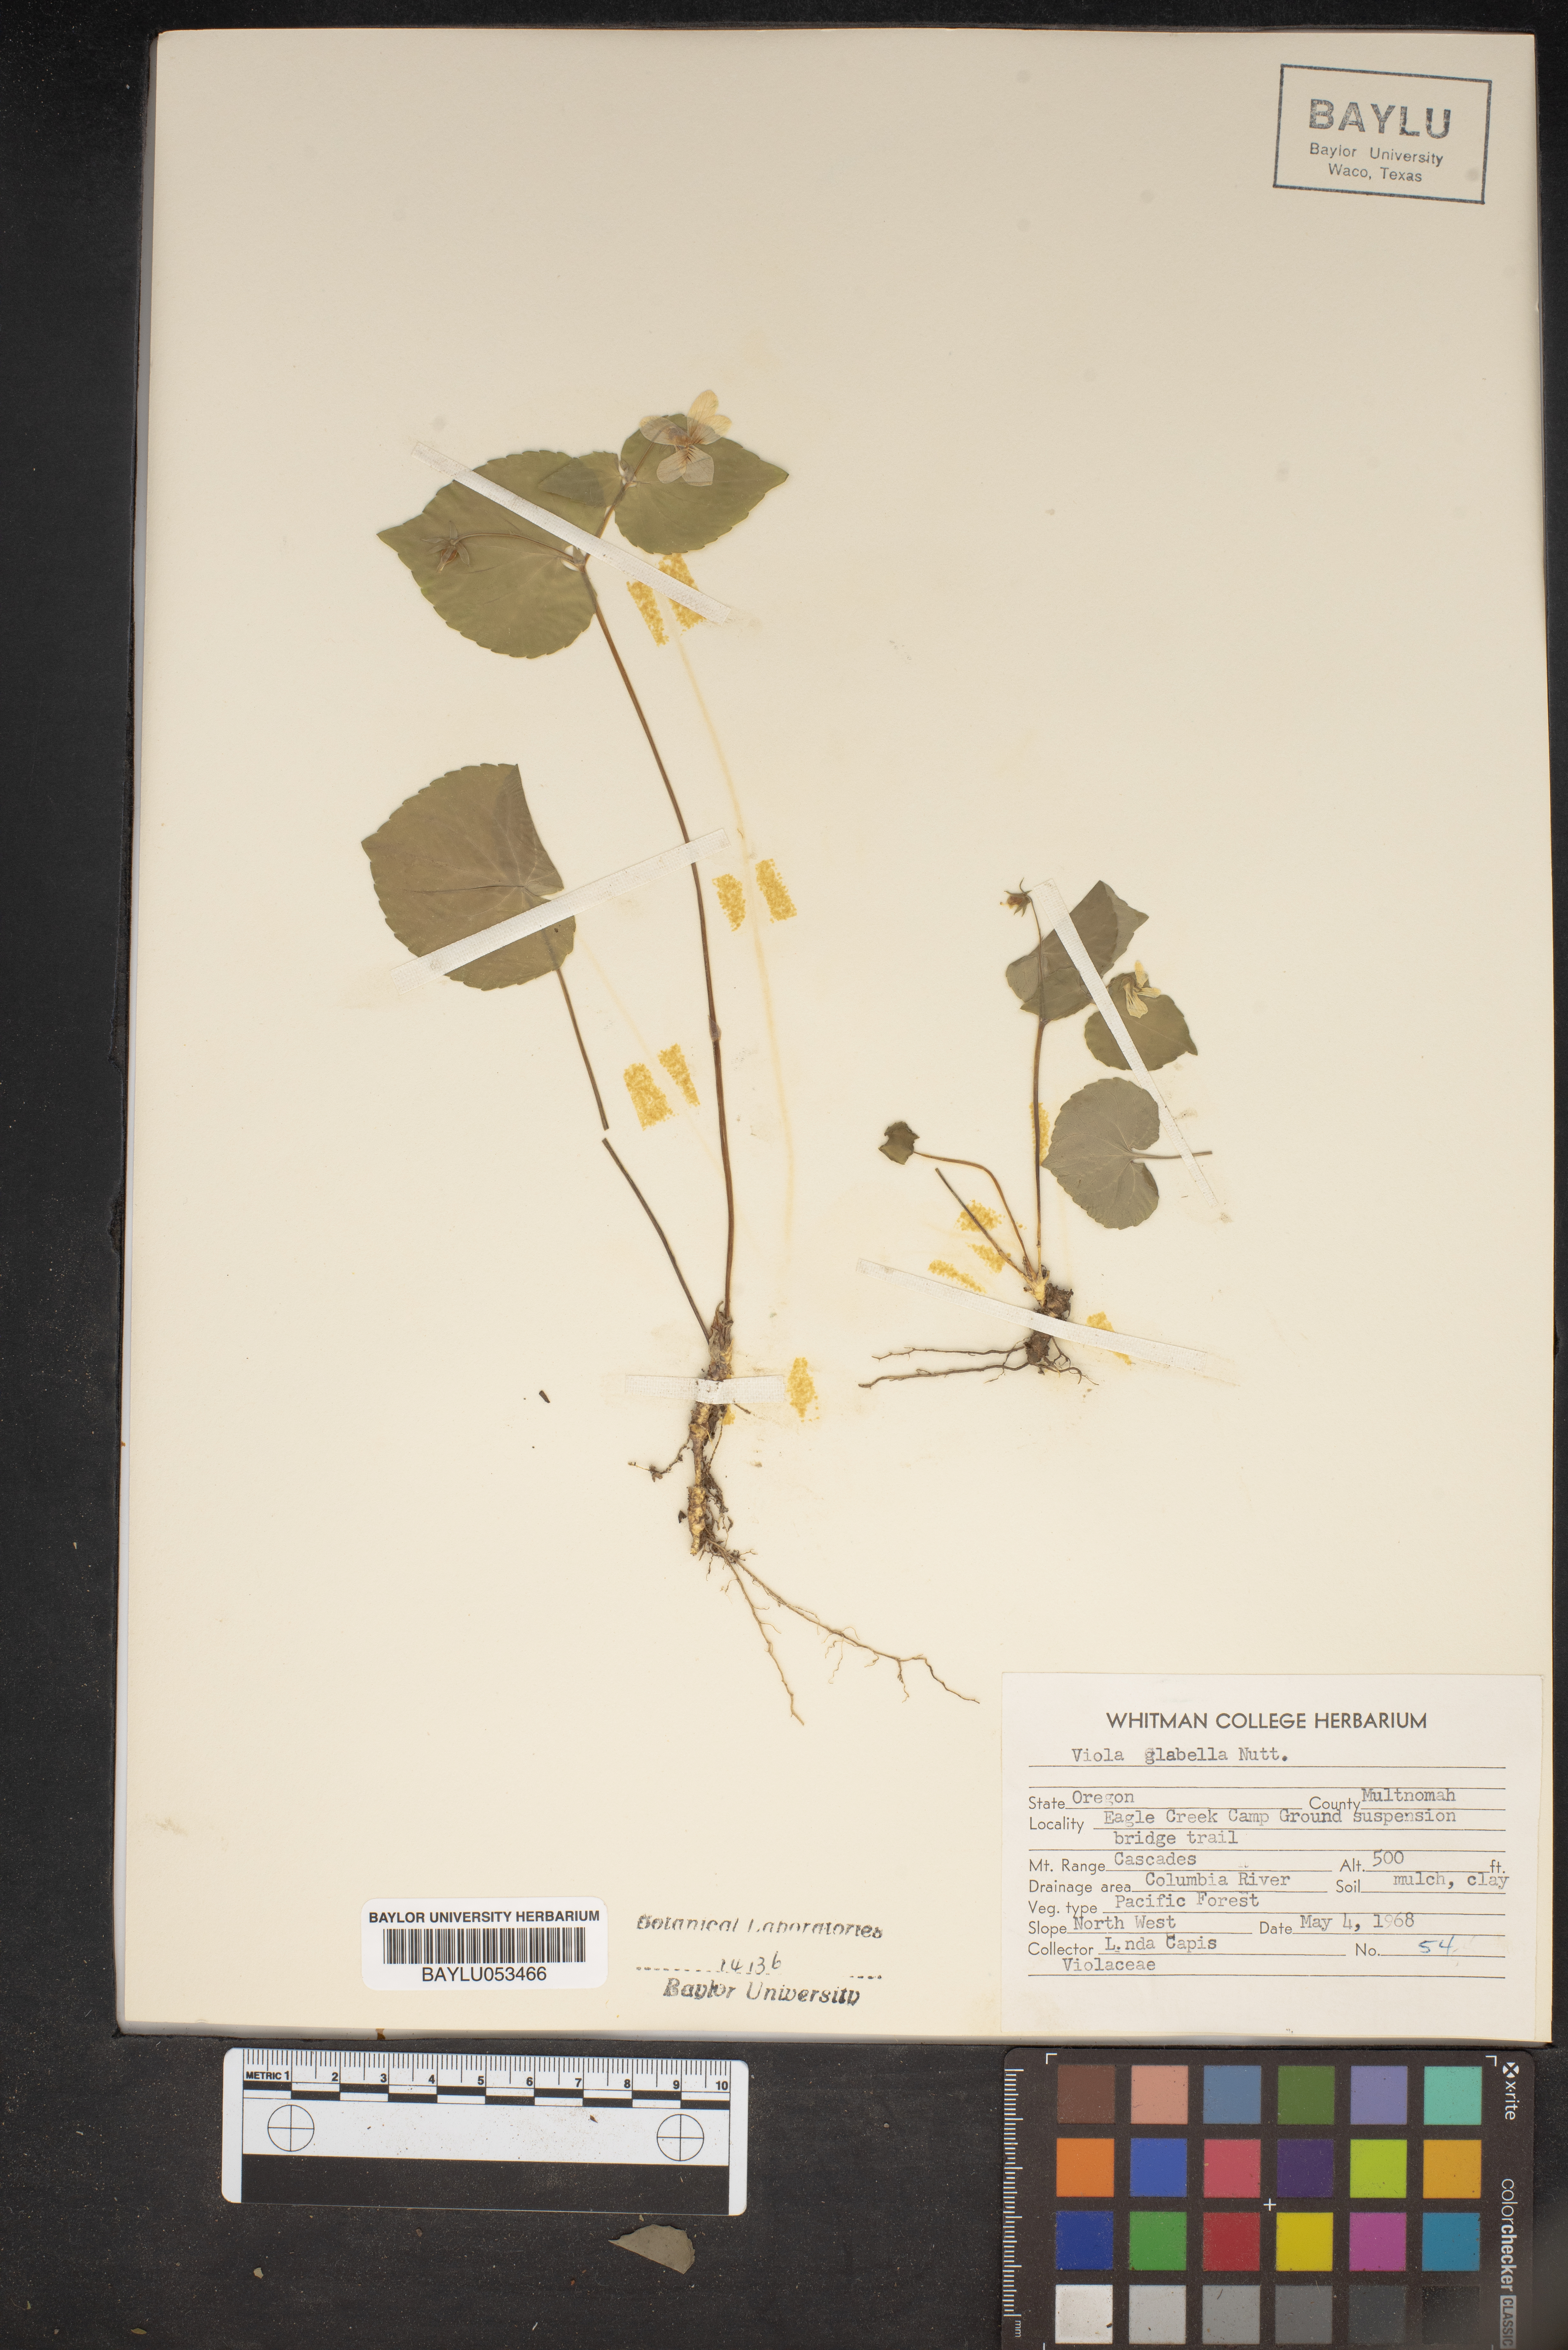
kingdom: Plantae
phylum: Tracheophyta
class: Magnoliopsida
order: Malpighiales
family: Violaceae
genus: Viola
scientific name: Viola glabella
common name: Stream violet
